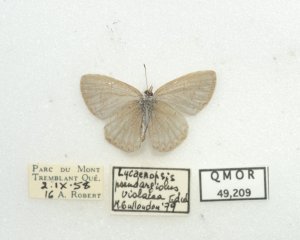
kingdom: Animalia
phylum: Arthropoda
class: Insecta
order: Lepidoptera
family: Lycaenidae
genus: Cyaniris
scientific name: Cyaniris neglecta
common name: Summer Azure
